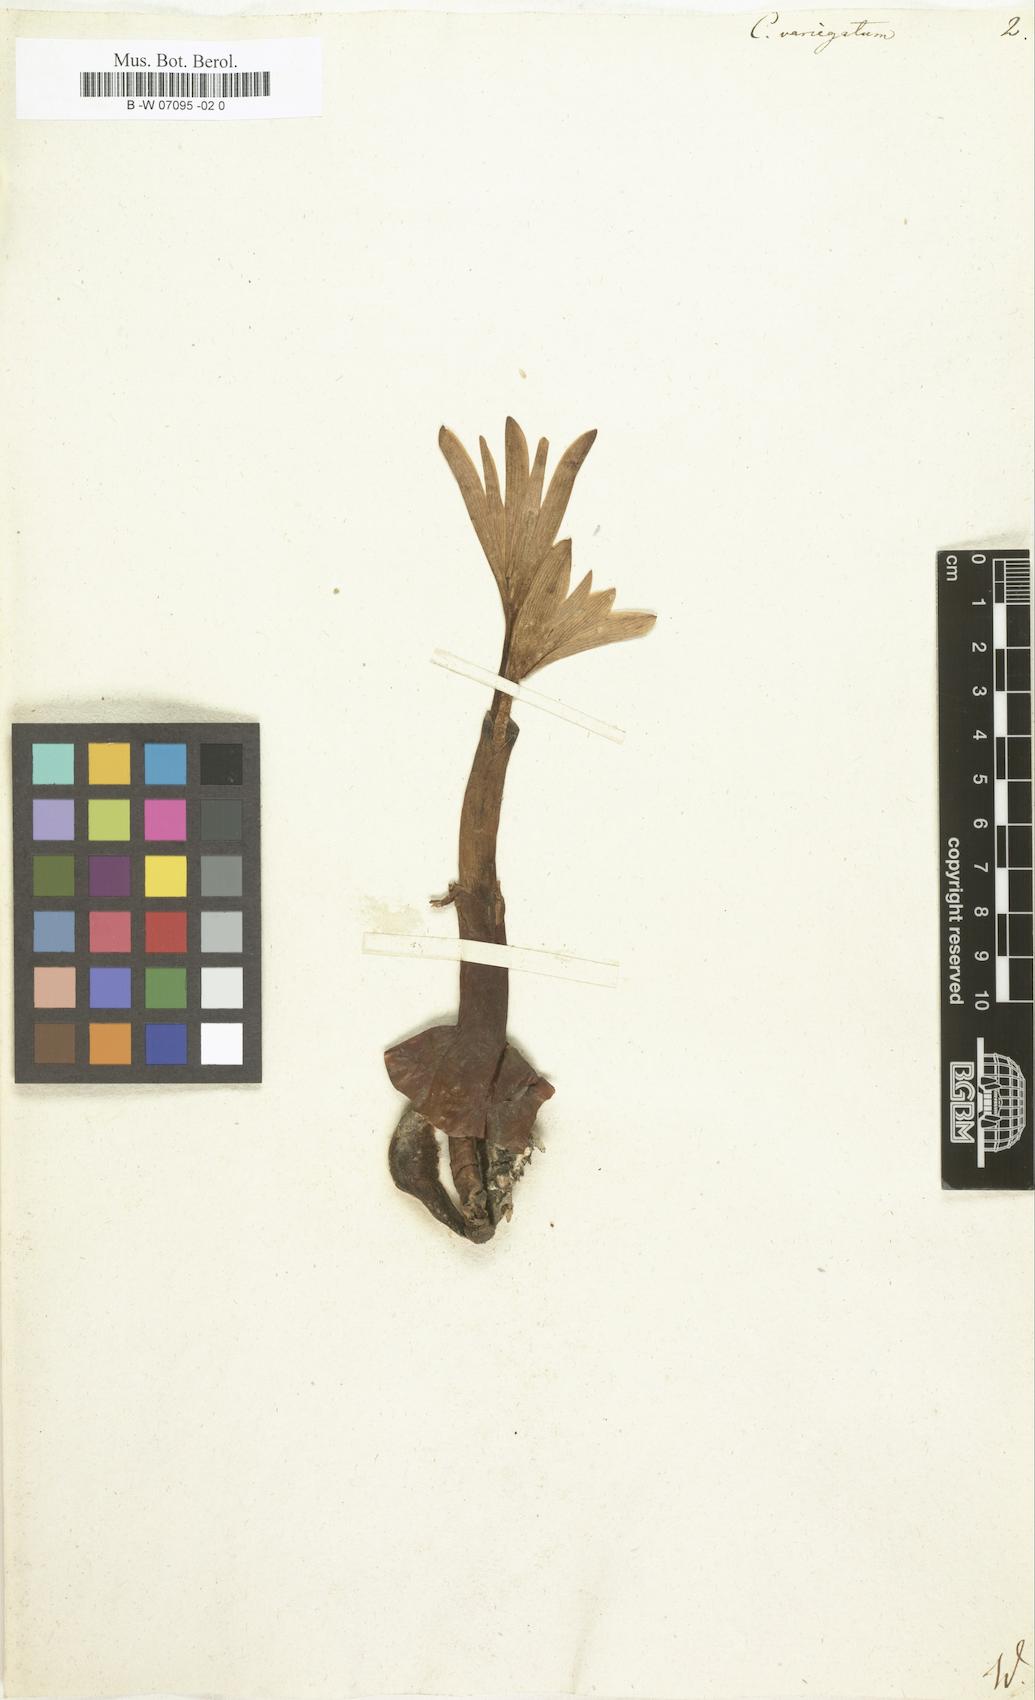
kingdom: Plantae
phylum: Tracheophyta
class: Liliopsida
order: Liliales
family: Colchicaceae
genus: Colchicum
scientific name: Colchicum variegatum
